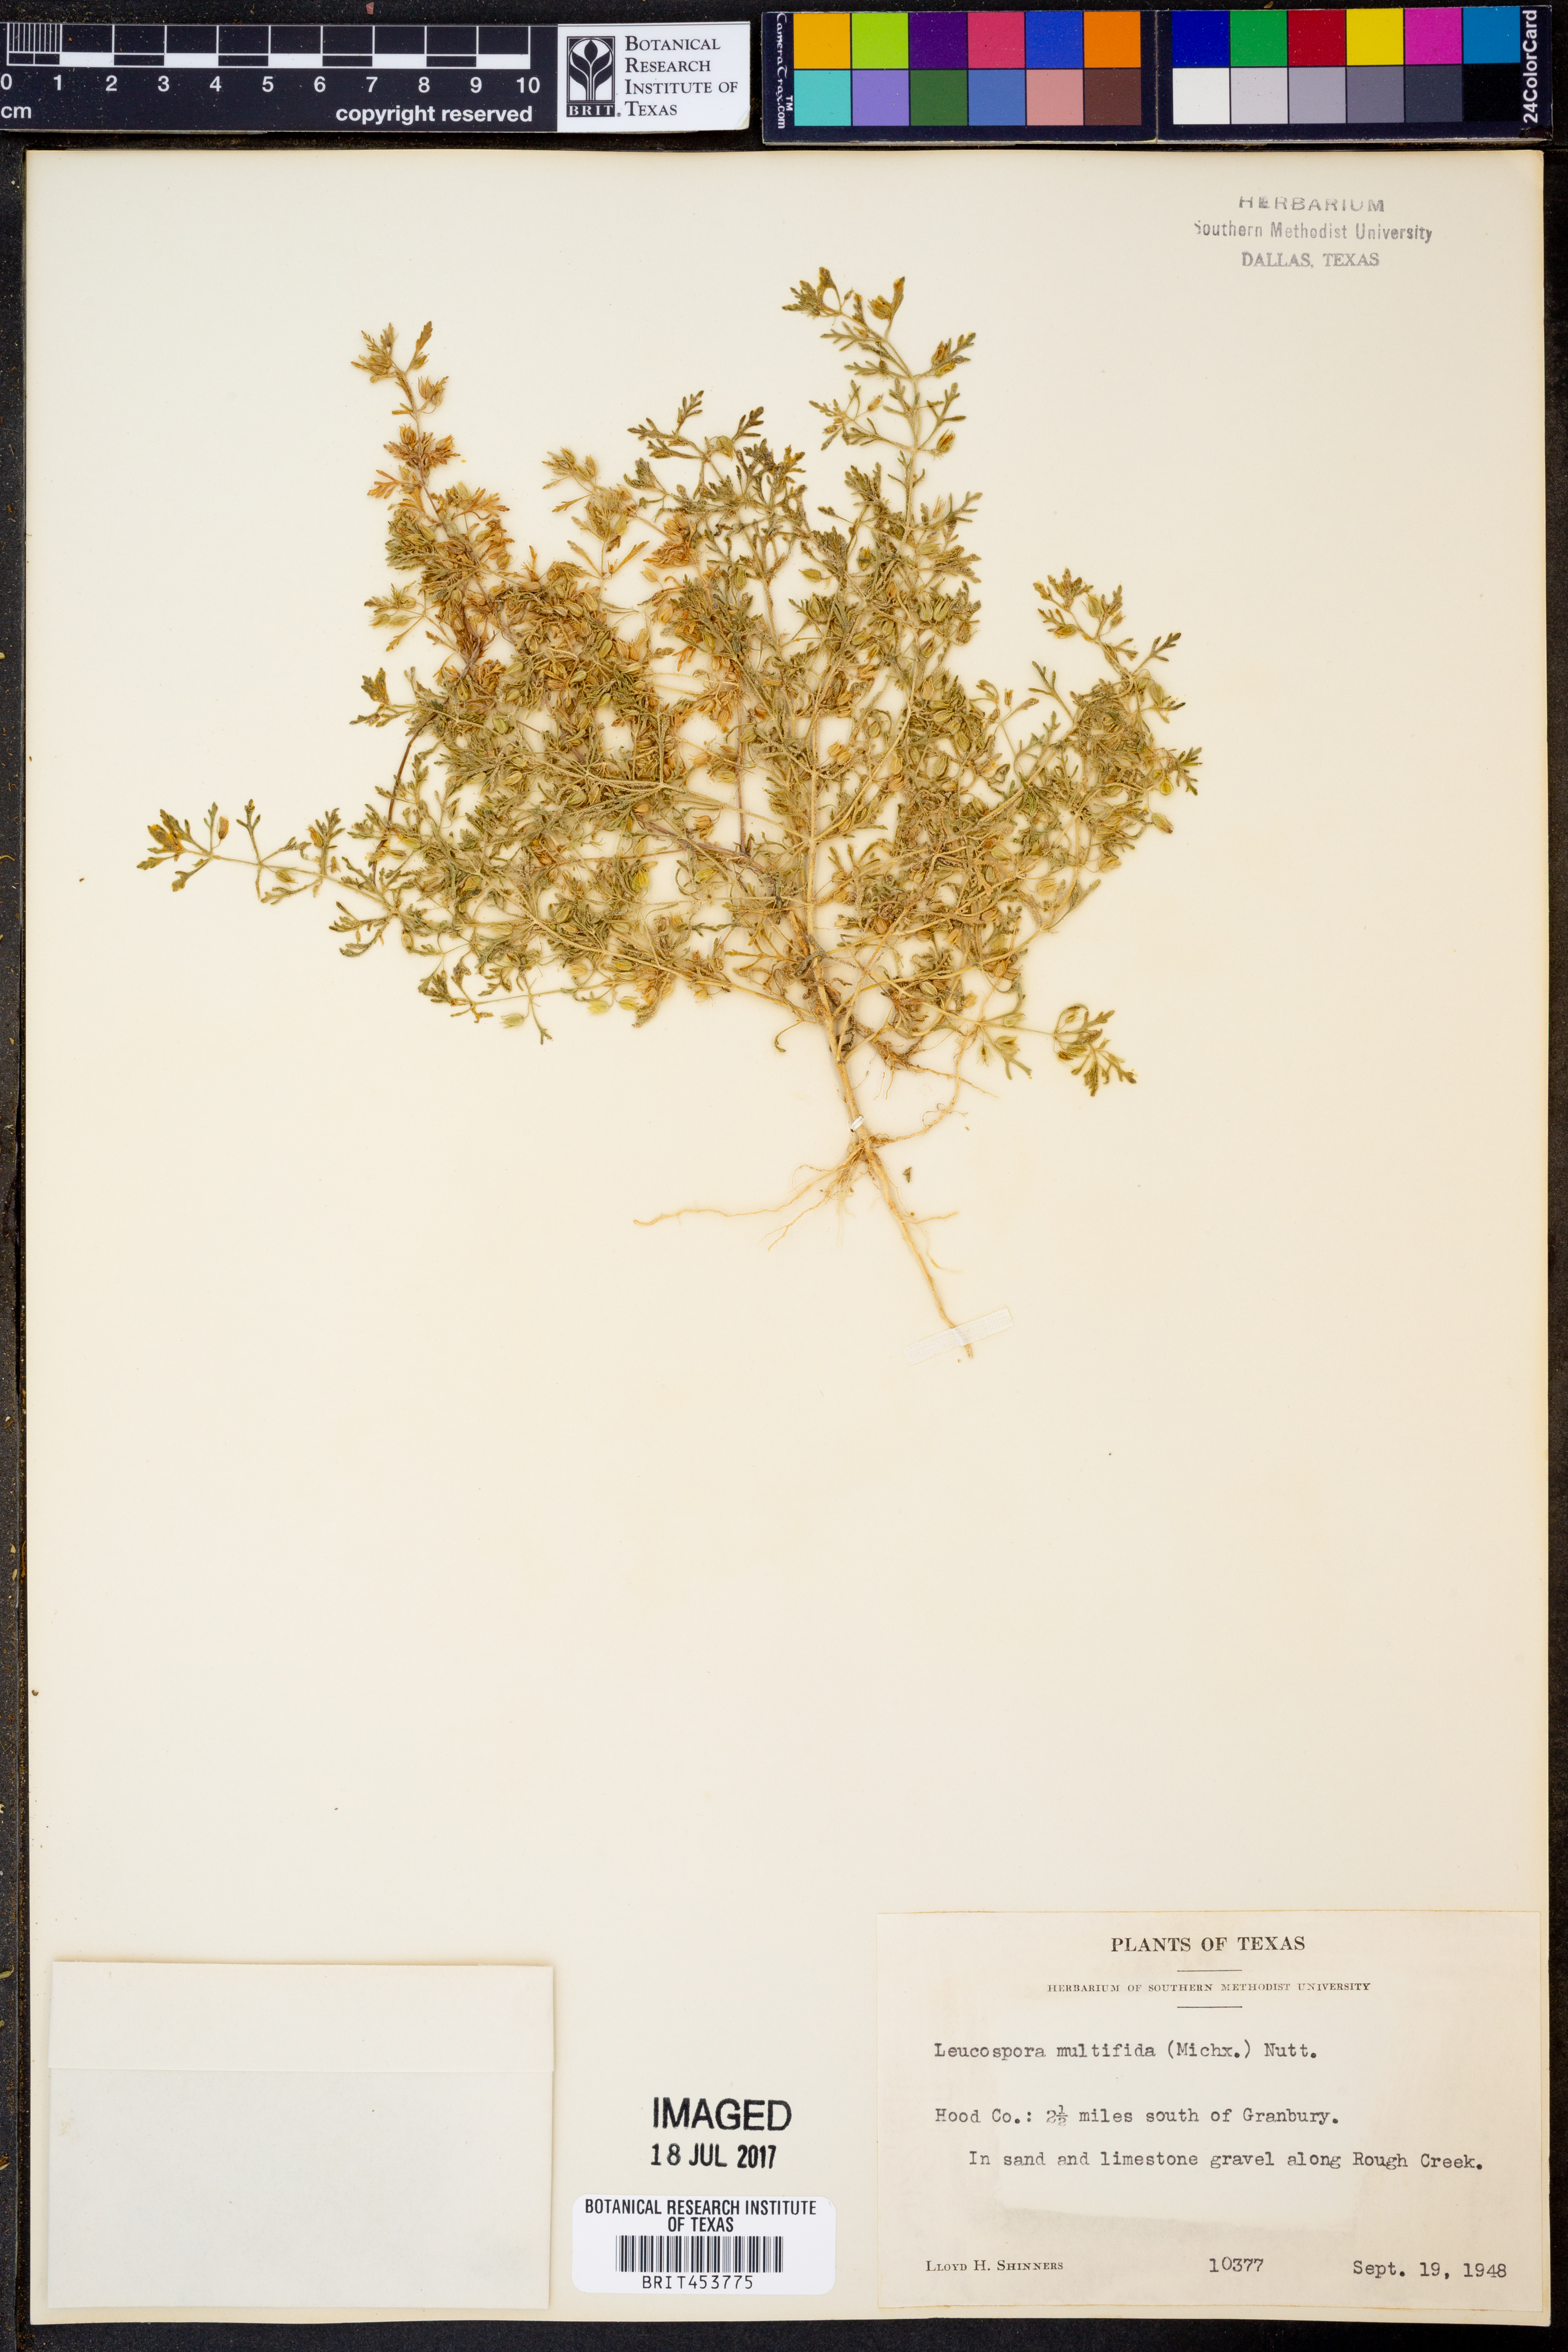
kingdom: Plantae
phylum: Tracheophyta
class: Magnoliopsida
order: Lamiales
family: Plantaginaceae
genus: Leucospora
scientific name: Leucospora multifida
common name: Narrow-leaf paleseed
